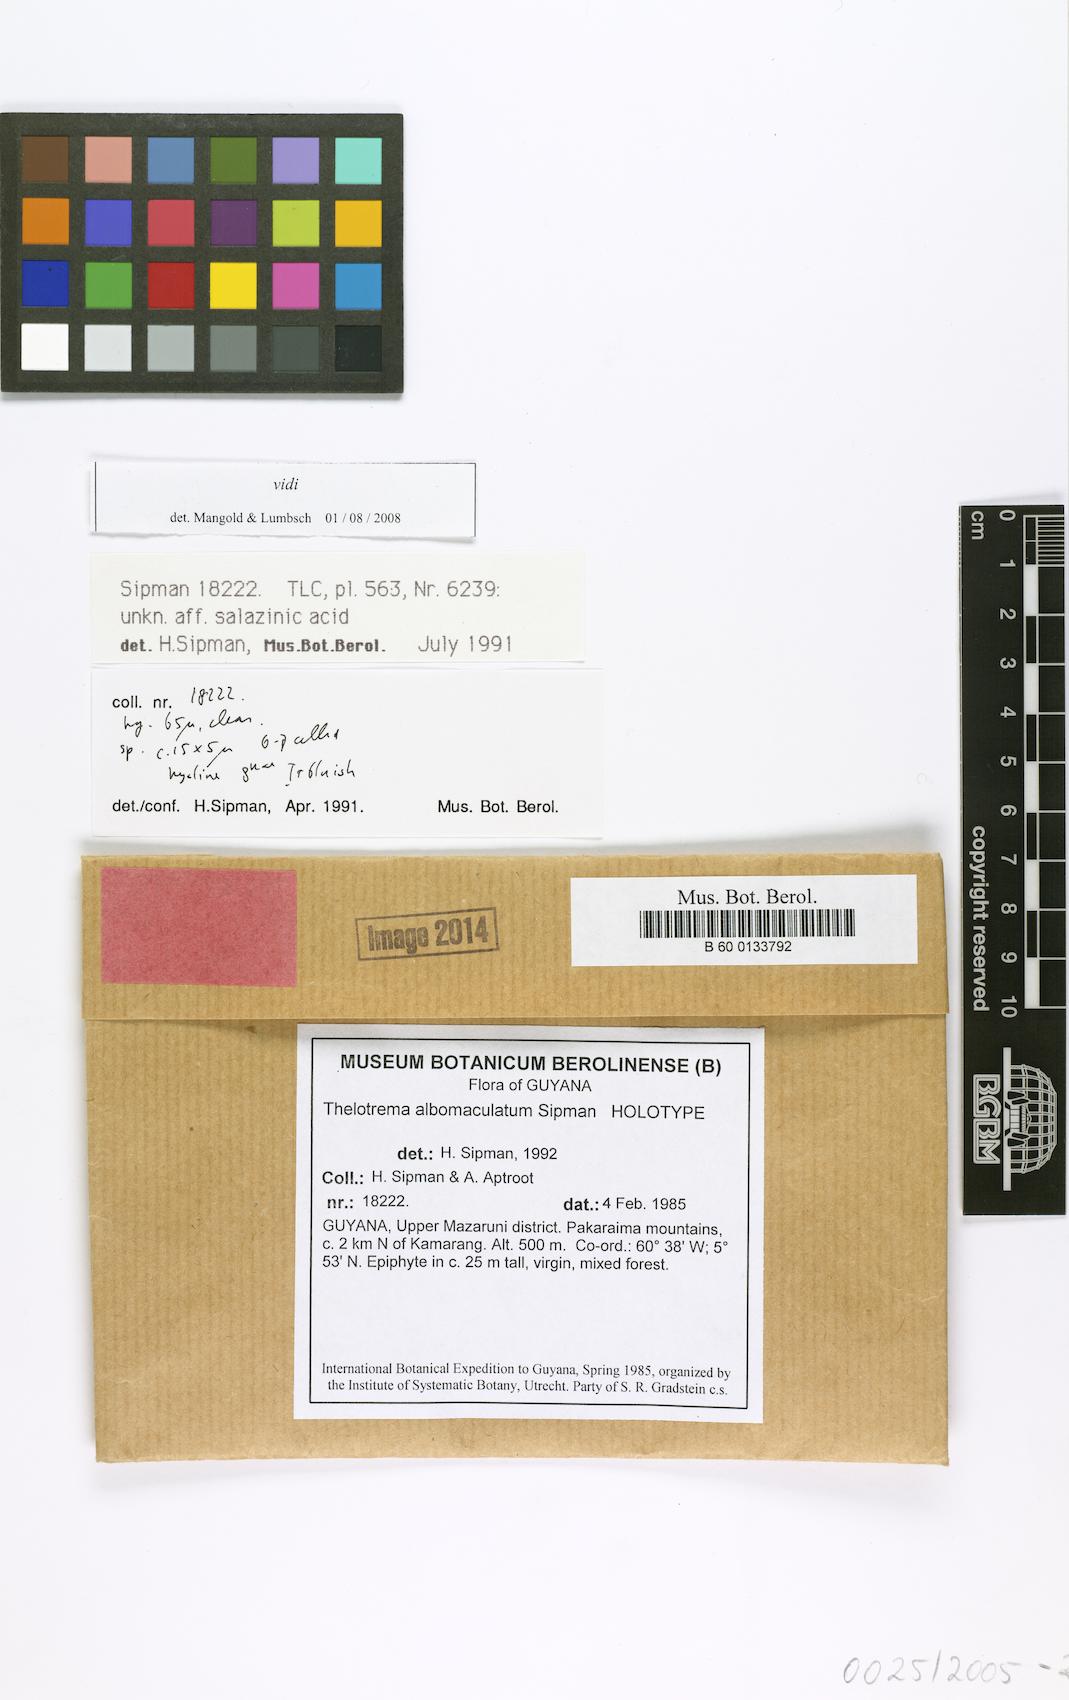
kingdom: Fungi
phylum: Ascomycota
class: Lecanoromycetes
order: Ostropales
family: Graphidaceae
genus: Pseudochapsa
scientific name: Pseudochapsa albomaculata
